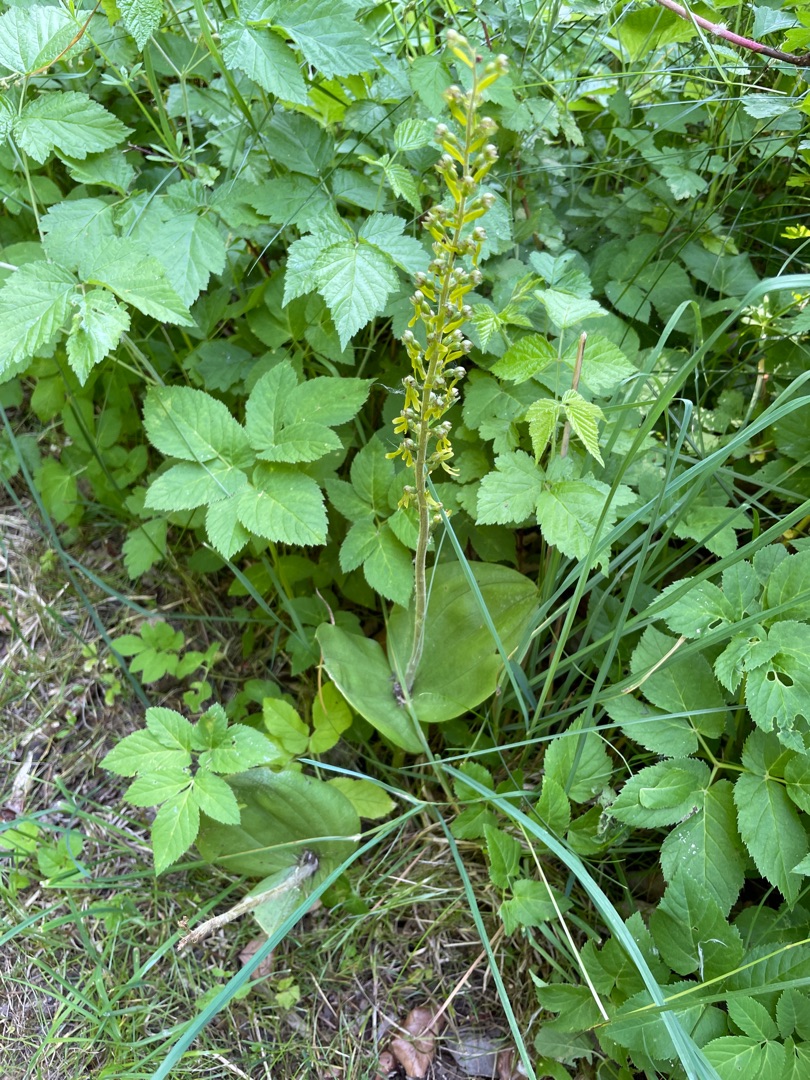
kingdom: Plantae
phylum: Tracheophyta
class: Liliopsida
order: Asparagales
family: Orchidaceae
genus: Neottia
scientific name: Neottia ovata
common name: Ægbladet fliglæbe
